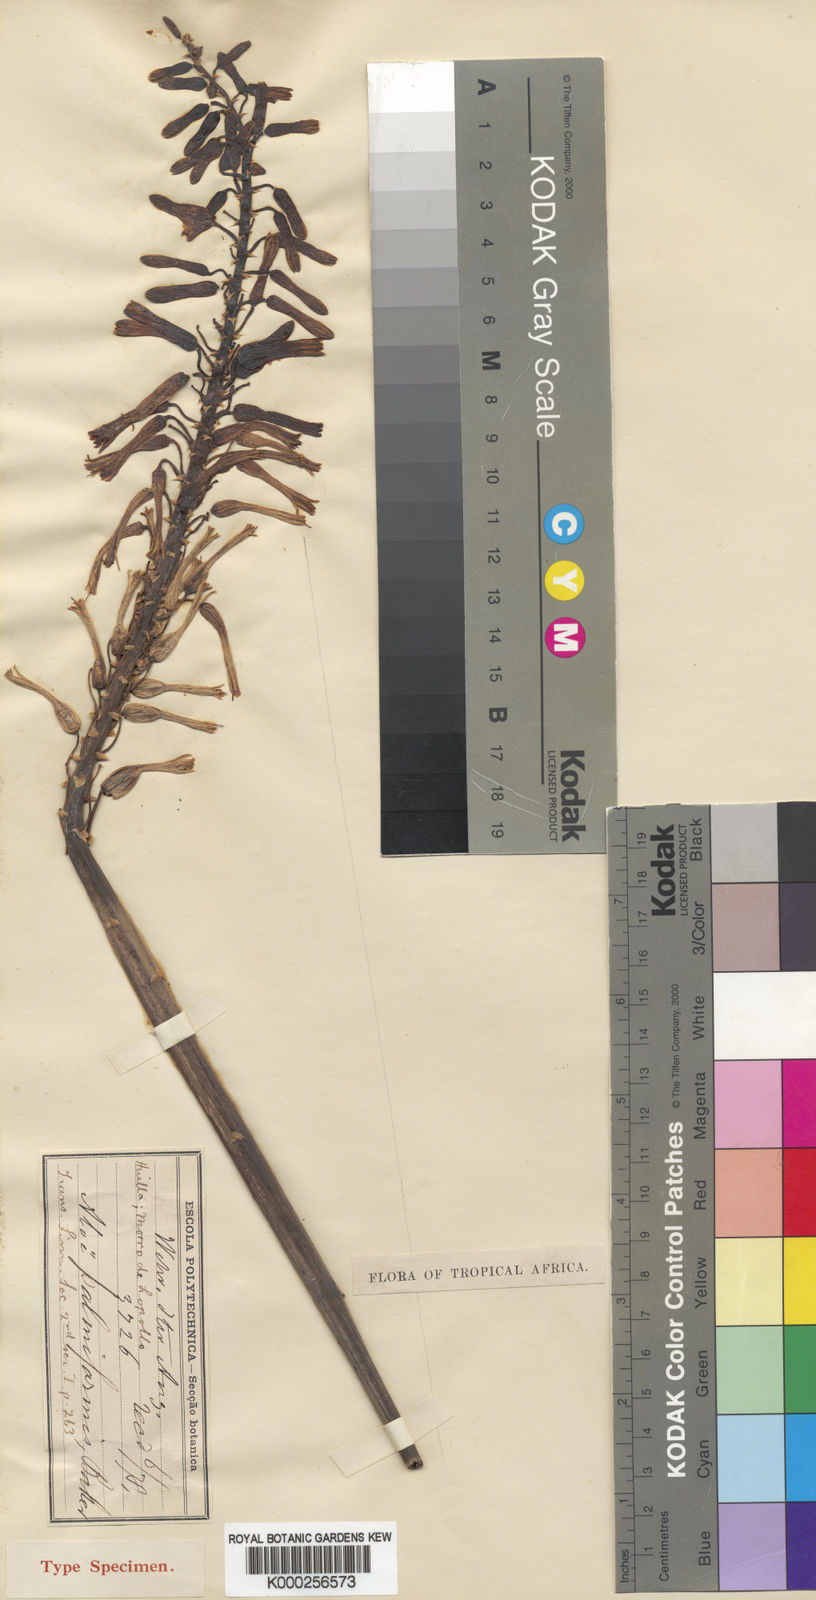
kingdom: Plantae
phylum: Tracheophyta
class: Liliopsida
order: Asparagales
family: Asphodelaceae
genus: Aloe
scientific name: Aloe palmiformis
